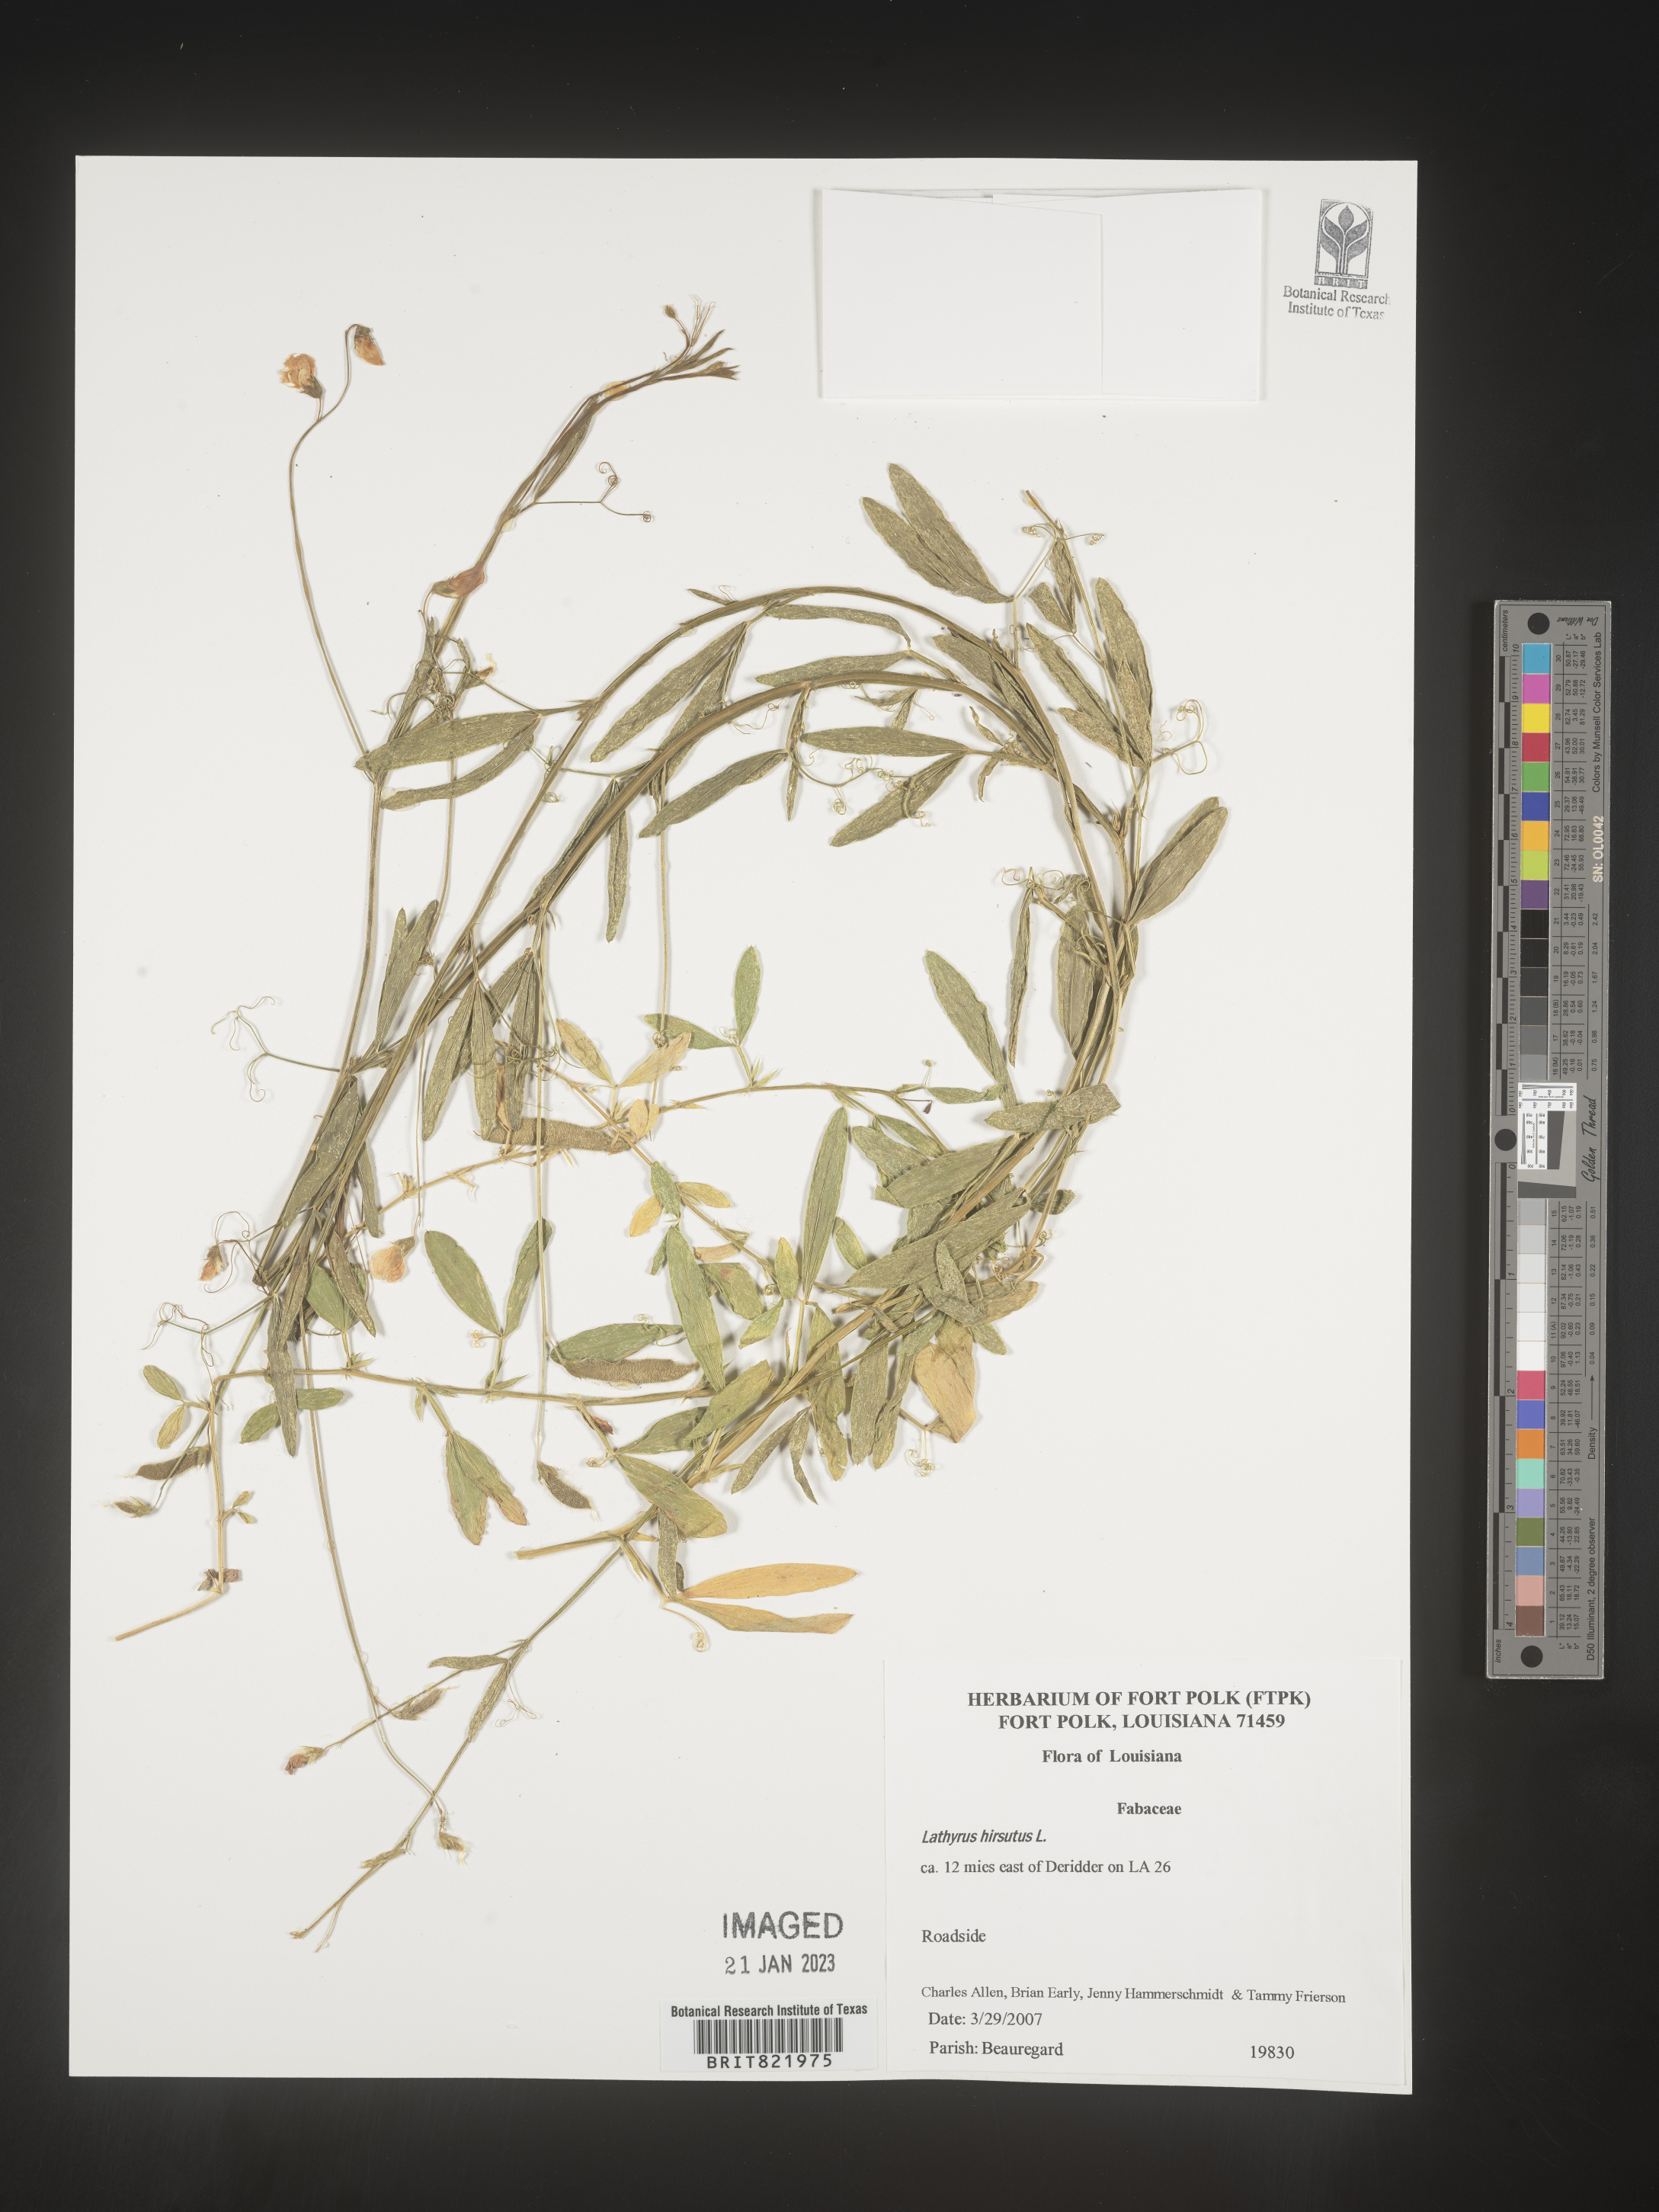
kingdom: Plantae
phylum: Tracheophyta
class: Magnoliopsida
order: Fabales
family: Fabaceae
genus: Lathyrus
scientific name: Lathyrus hirsutus
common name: Hairy vetchling
